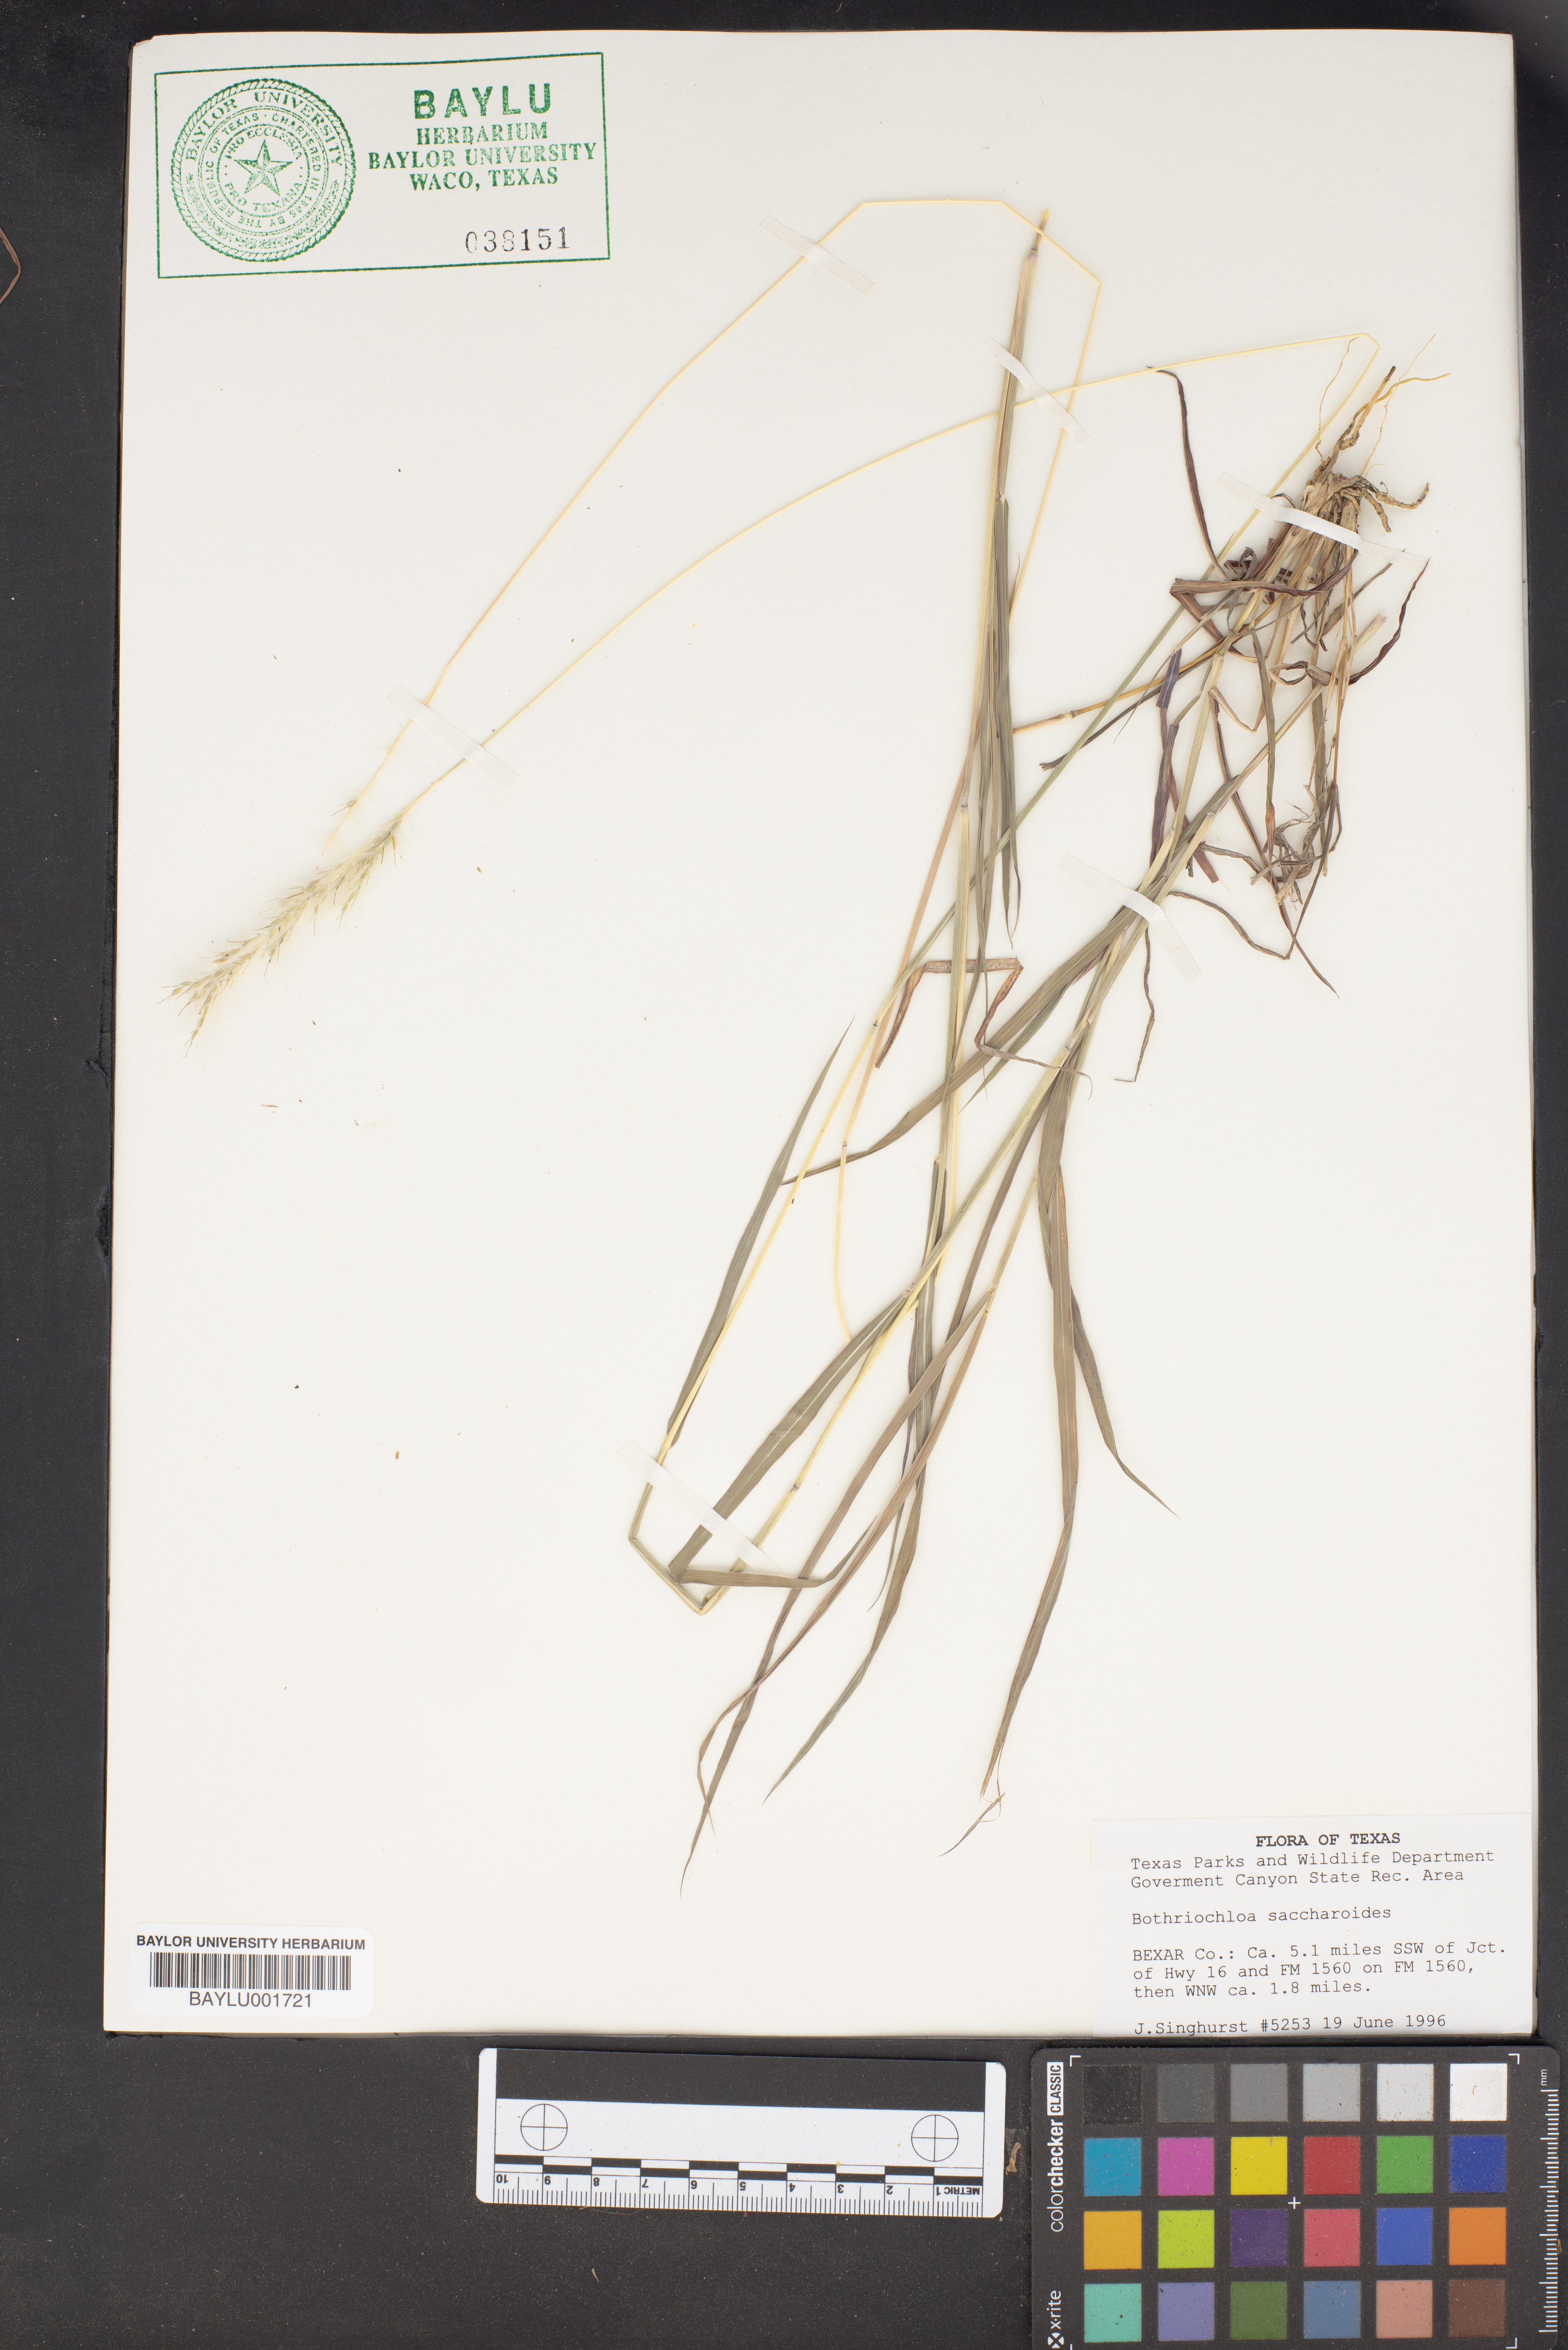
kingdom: Plantae
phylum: Tracheophyta
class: Liliopsida
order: Poales
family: Poaceae
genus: Bothriochloa
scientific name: Bothriochloa saccharoides
